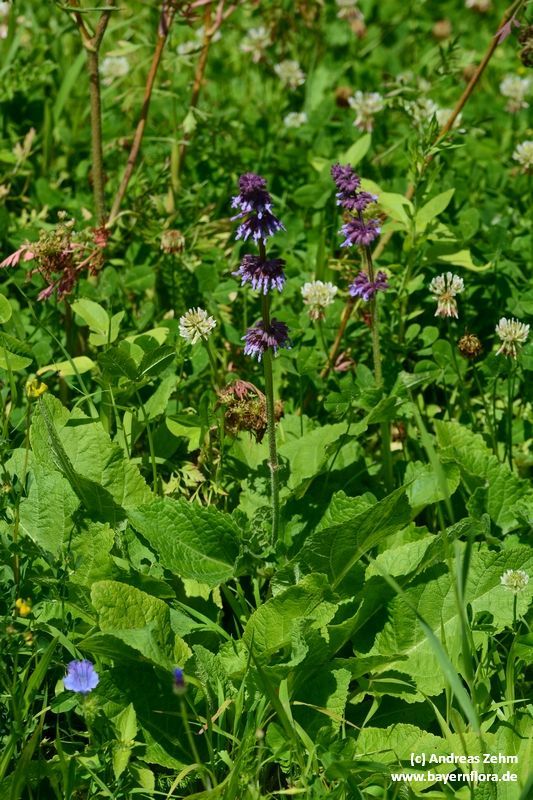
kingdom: Plantae
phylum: Tracheophyta
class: Magnoliopsida
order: Lamiales
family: Lamiaceae
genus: Salvia
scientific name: Salvia verticillata
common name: Whorled clary
